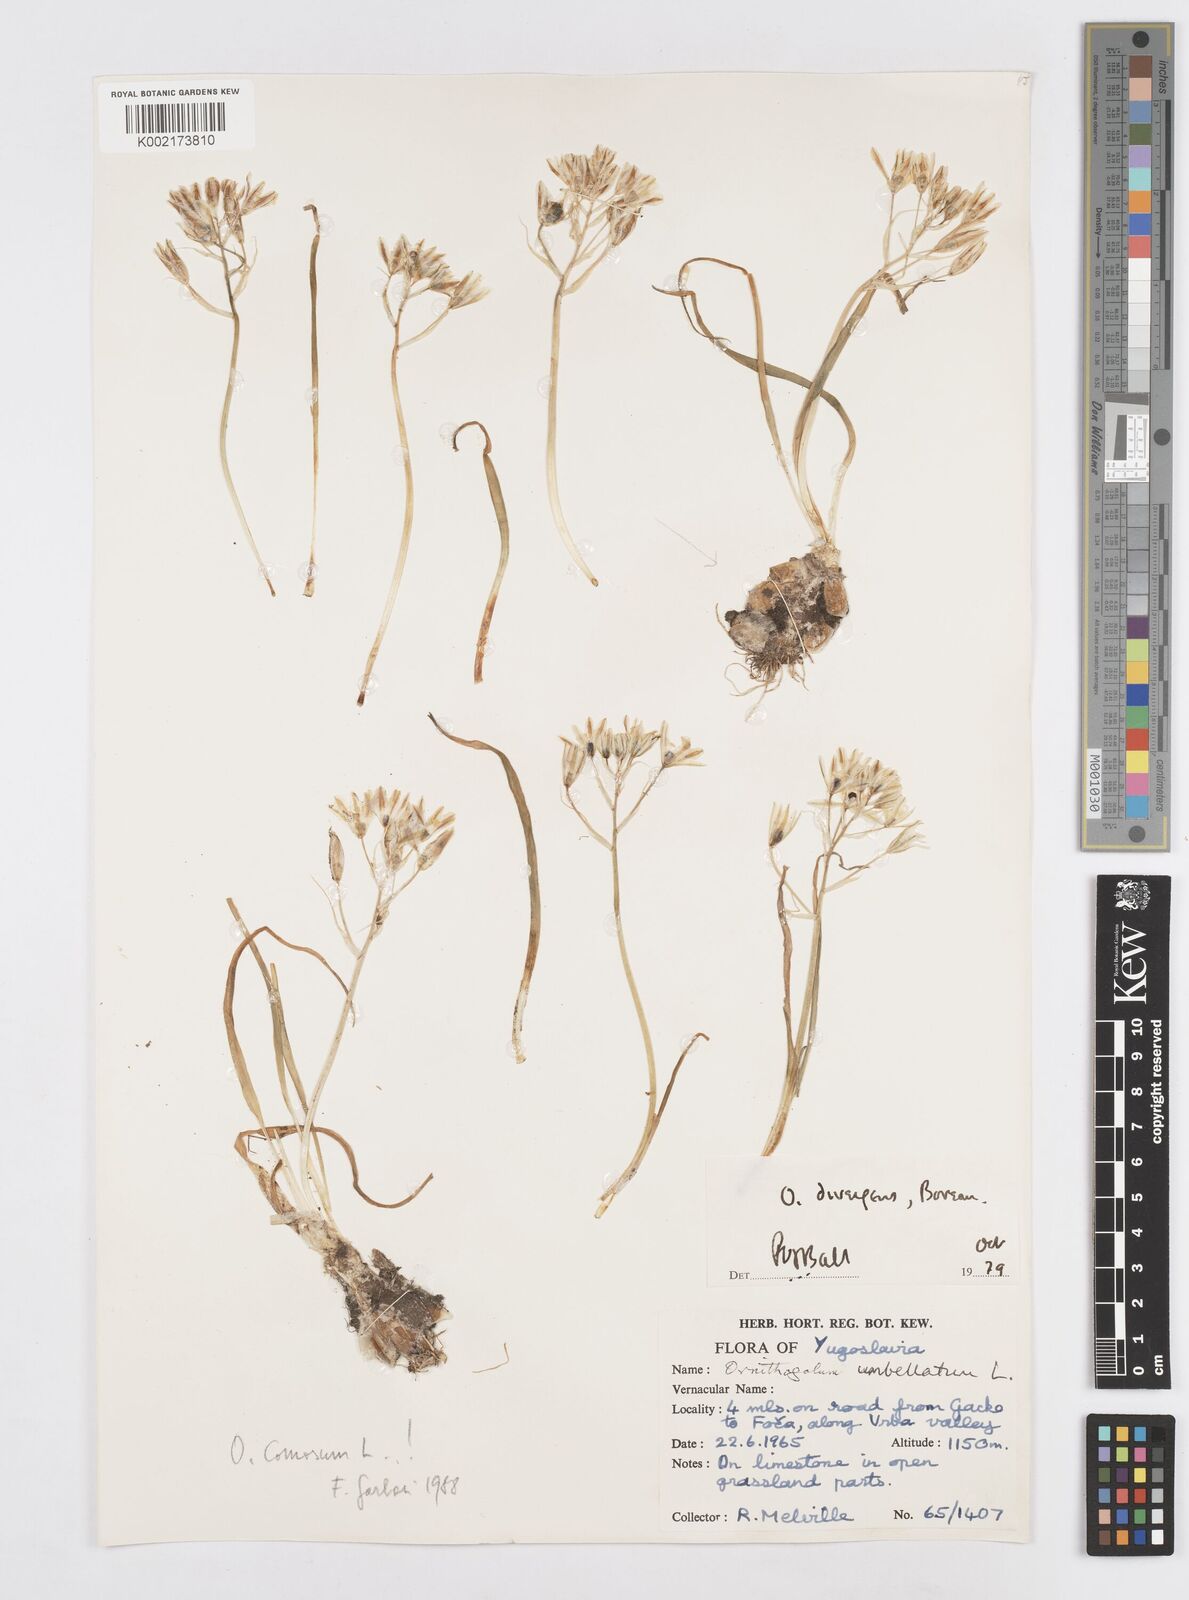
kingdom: Plantae
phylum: Tracheophyta
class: Liliopsida
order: Asparagales
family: Asparagaceae
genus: Ornithogalum
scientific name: Ornithogalum umbellatum
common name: Garden star-of-bethlehem
